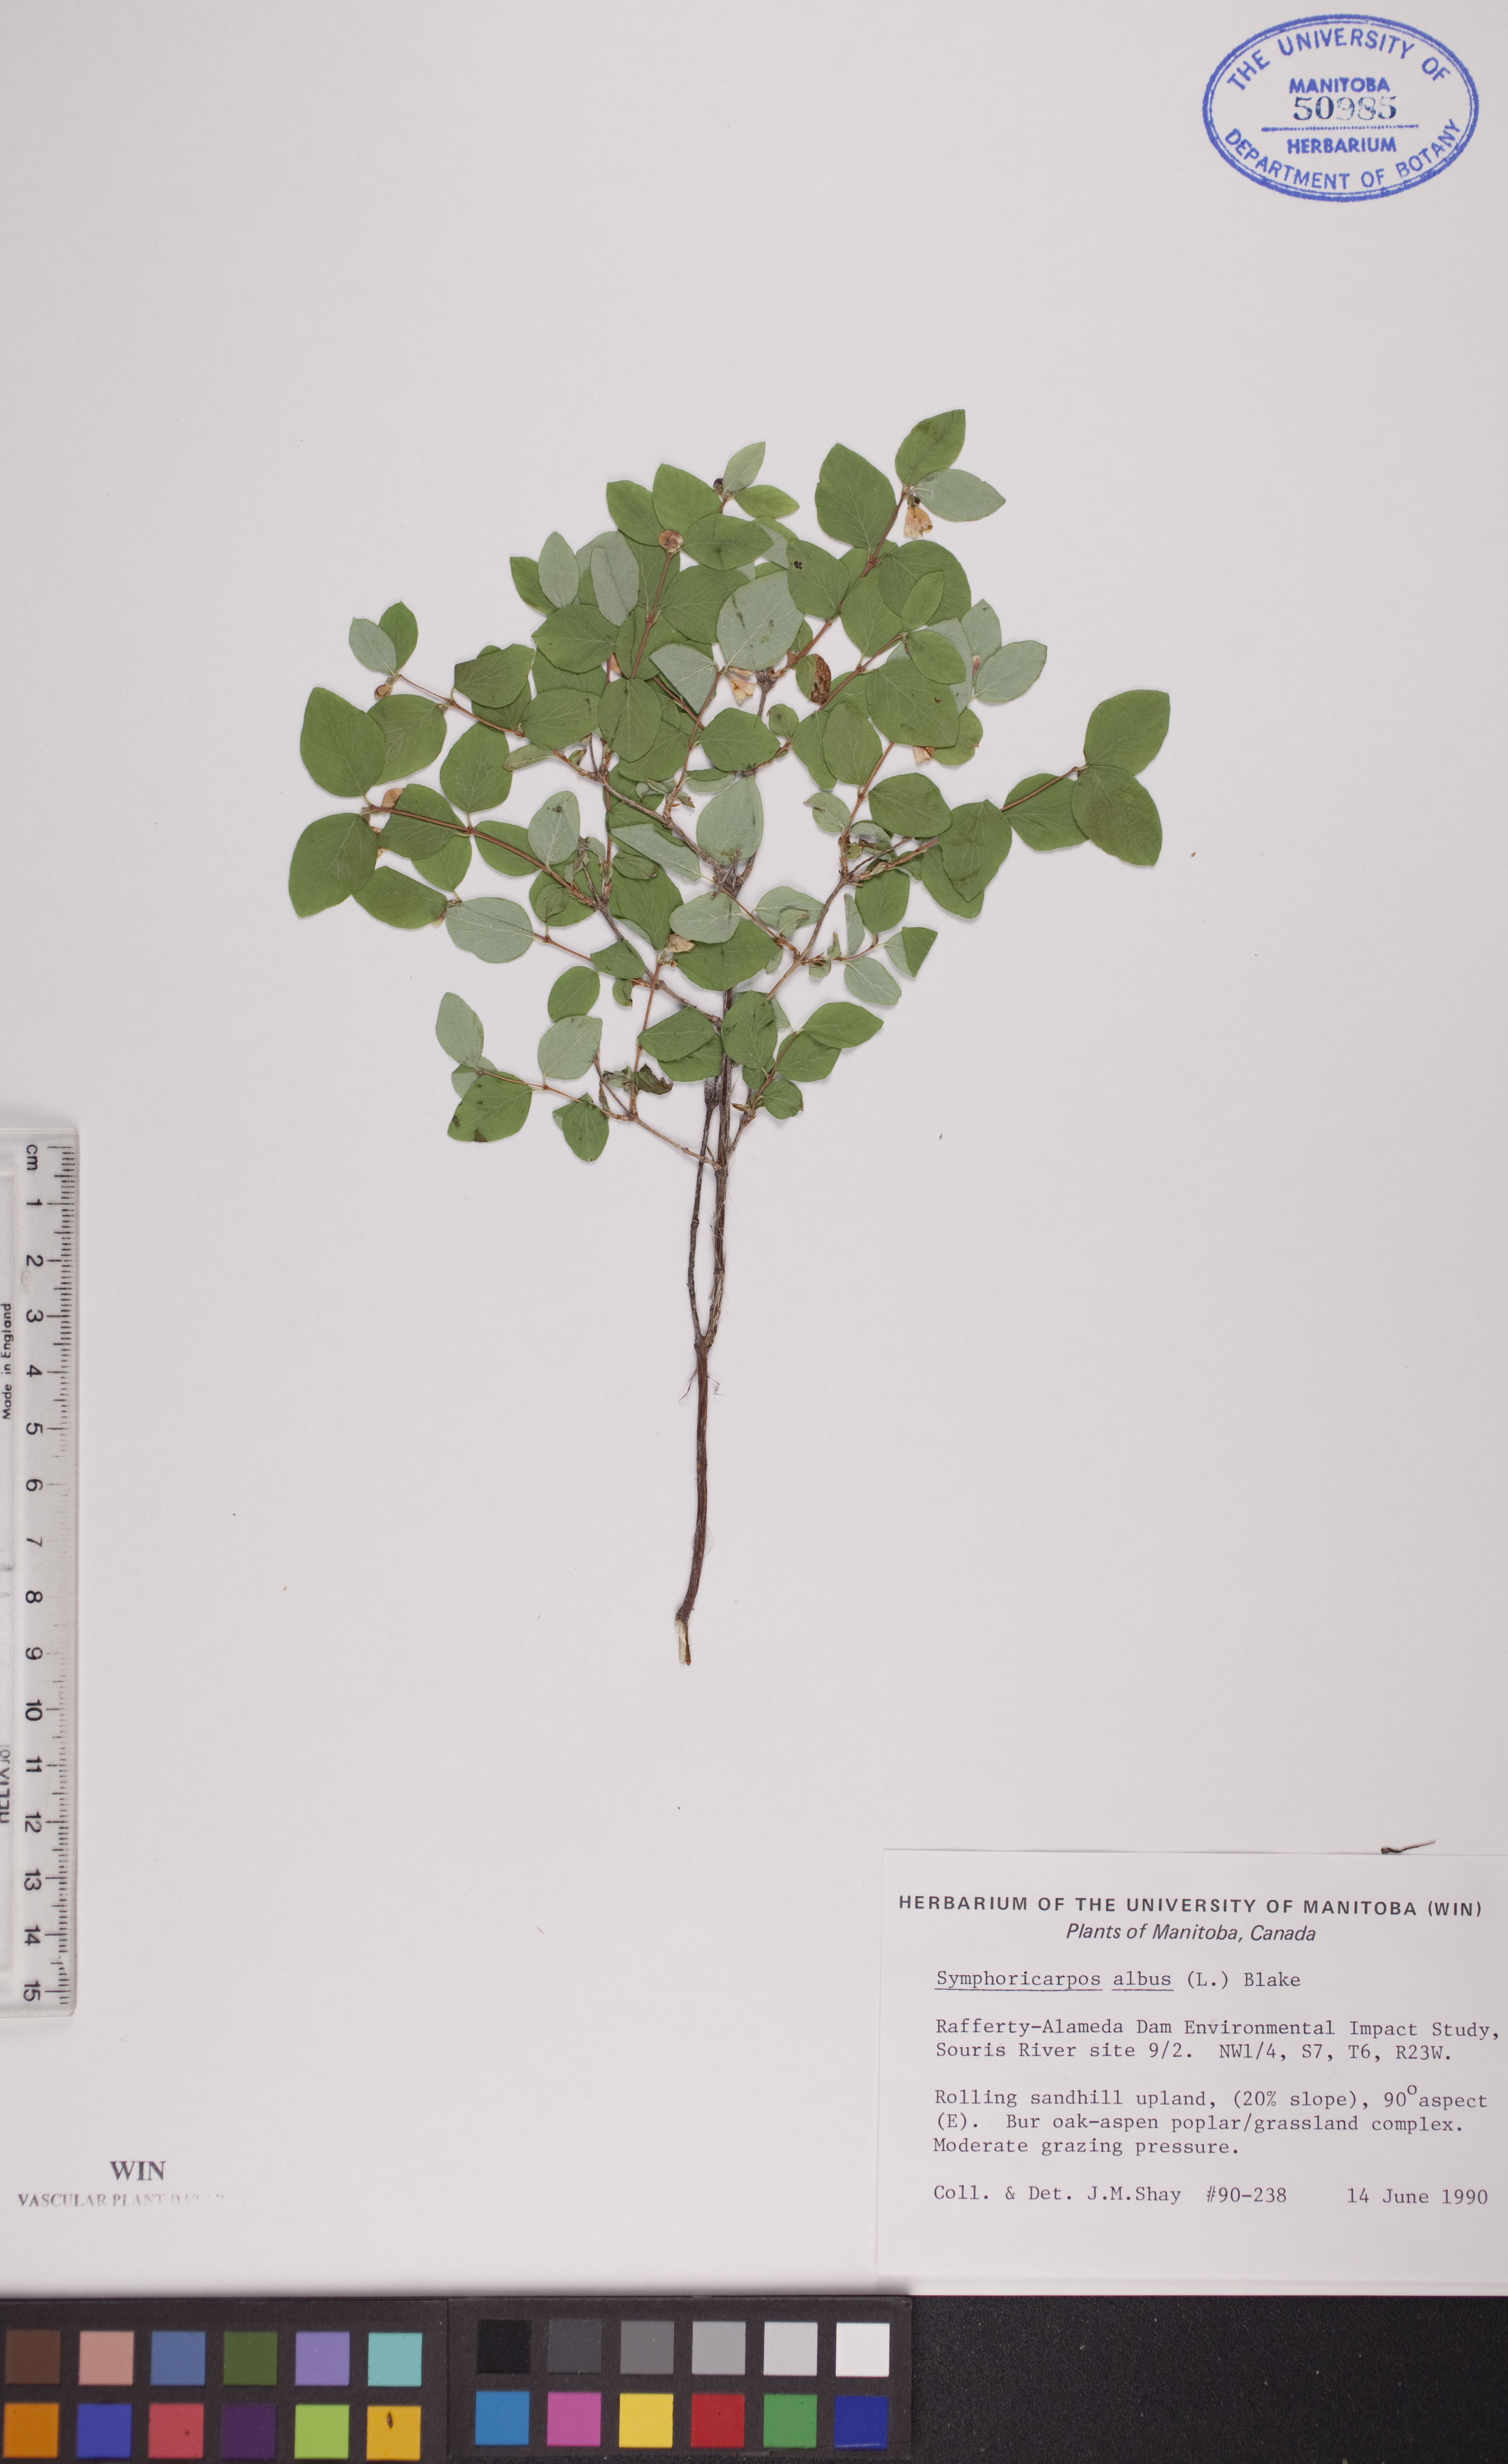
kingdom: Plantae
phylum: Tracheophyta
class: Magnoliopsida
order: Dipsacales
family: Caprifoliaceae
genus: Symphoricarpos
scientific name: Symphoricarpos albus
